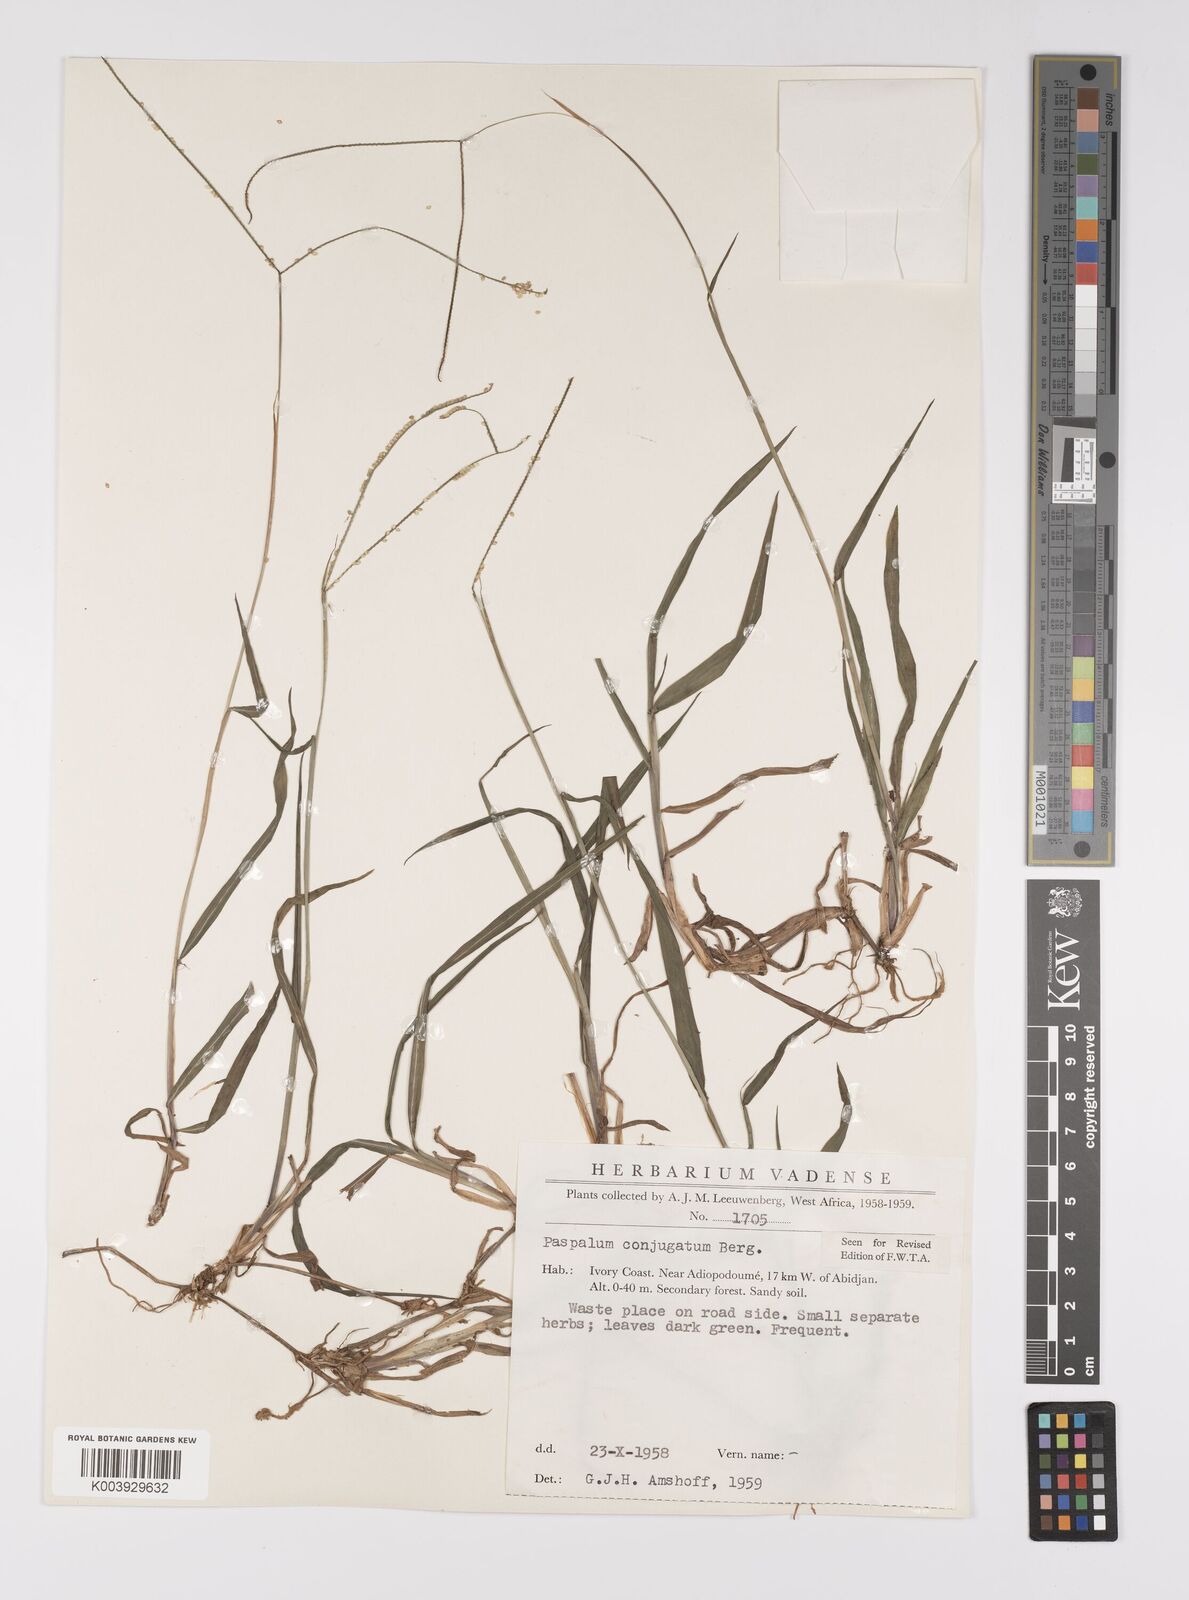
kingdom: Plantae
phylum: Tracheophyta
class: Liliopsida
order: Poales
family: Poaceae
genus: Paspalum
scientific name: Paspalum conjugatum
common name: Hilograss
